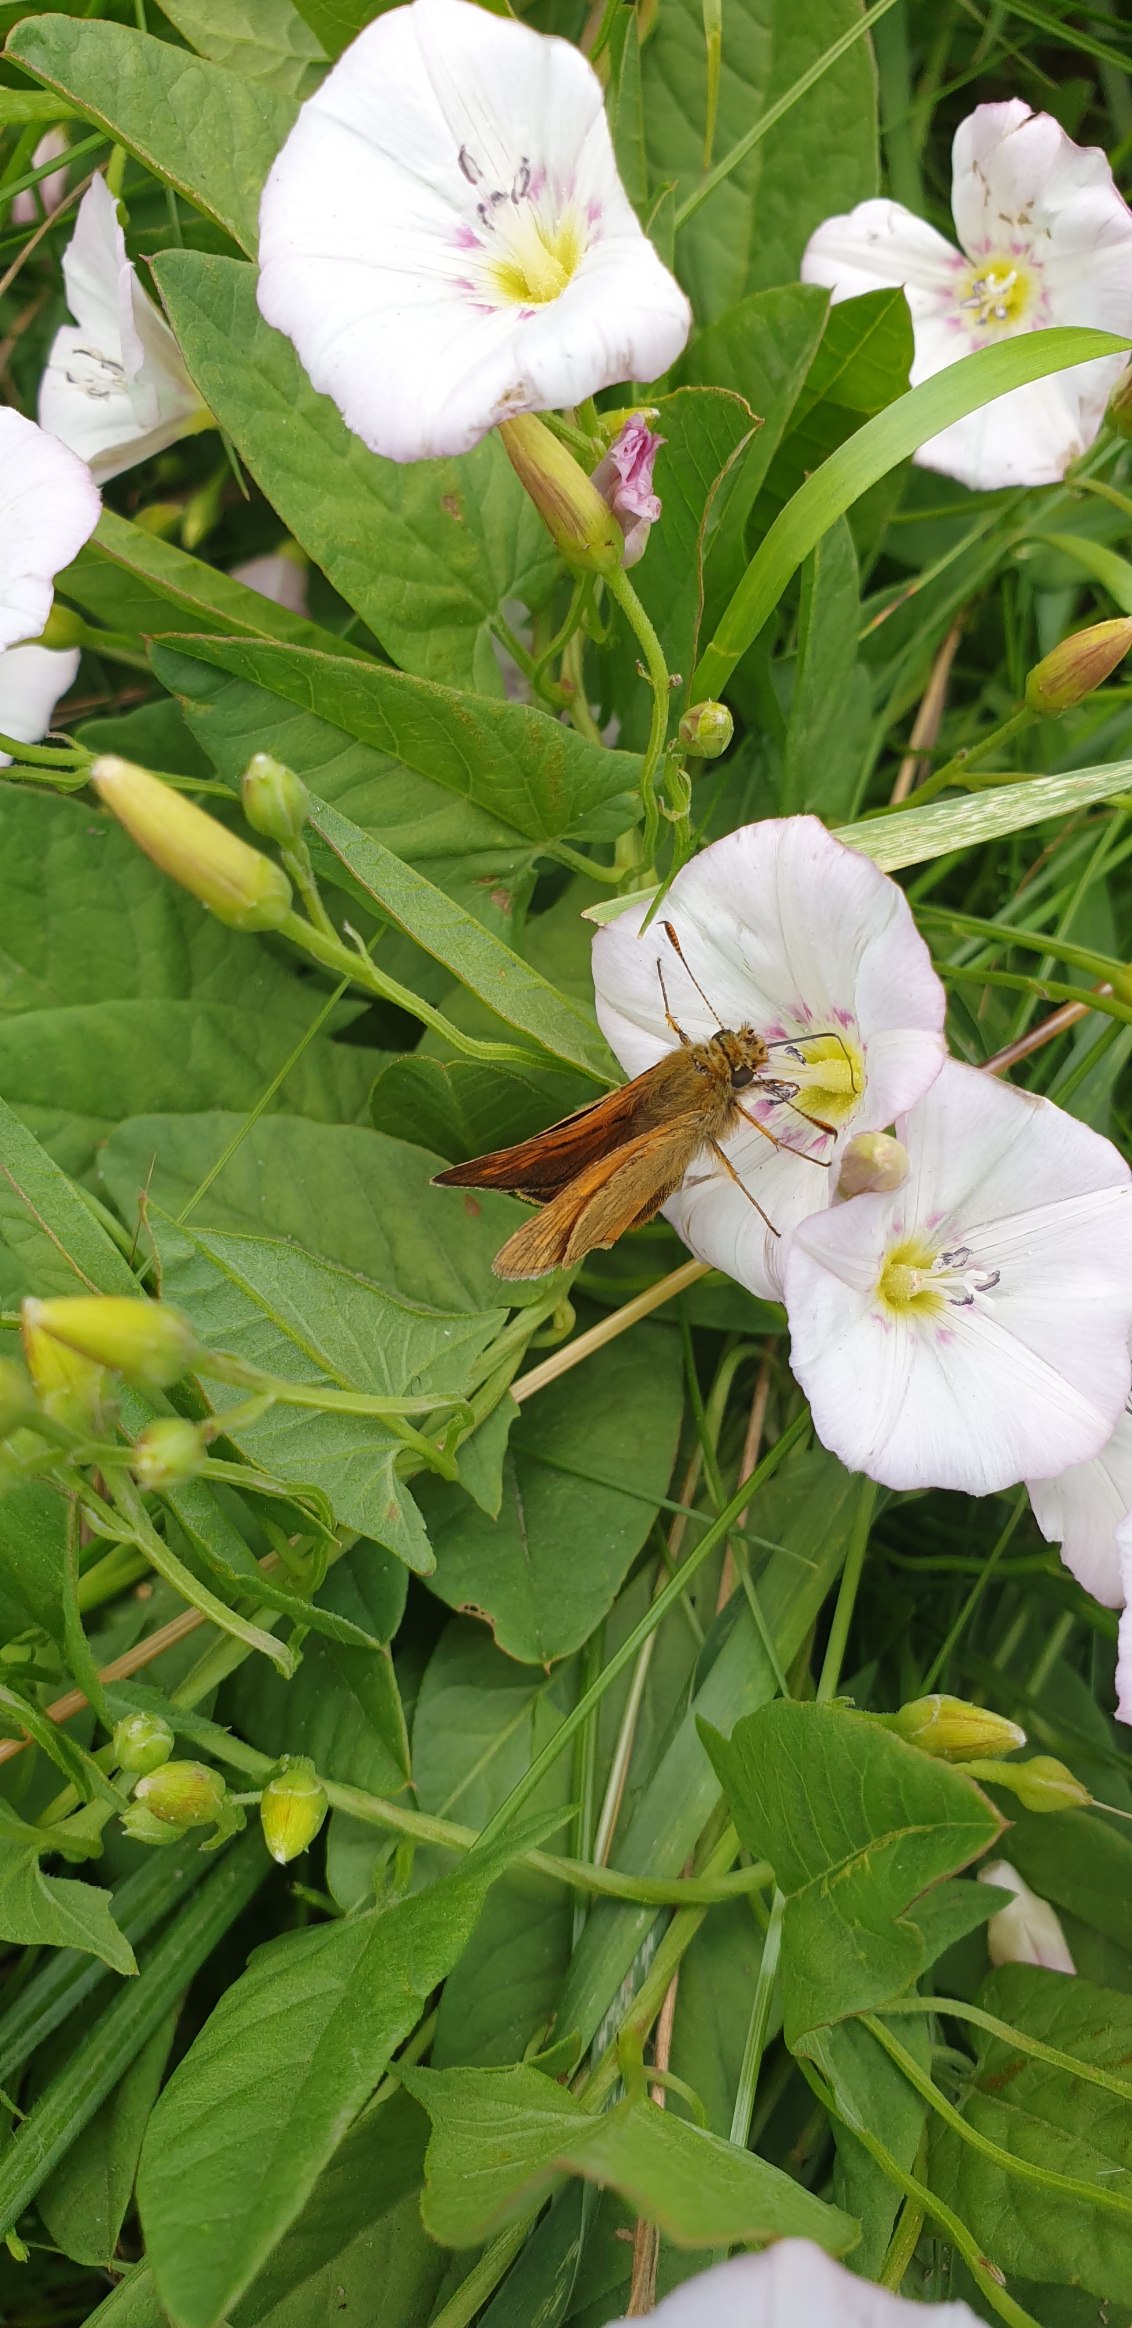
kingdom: Animalia
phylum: Arthropoda
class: Insecta
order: Lepidoptera
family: Hesperiidae
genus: Ochlodes
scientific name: Ochlodes venata
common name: Stor bredpande
